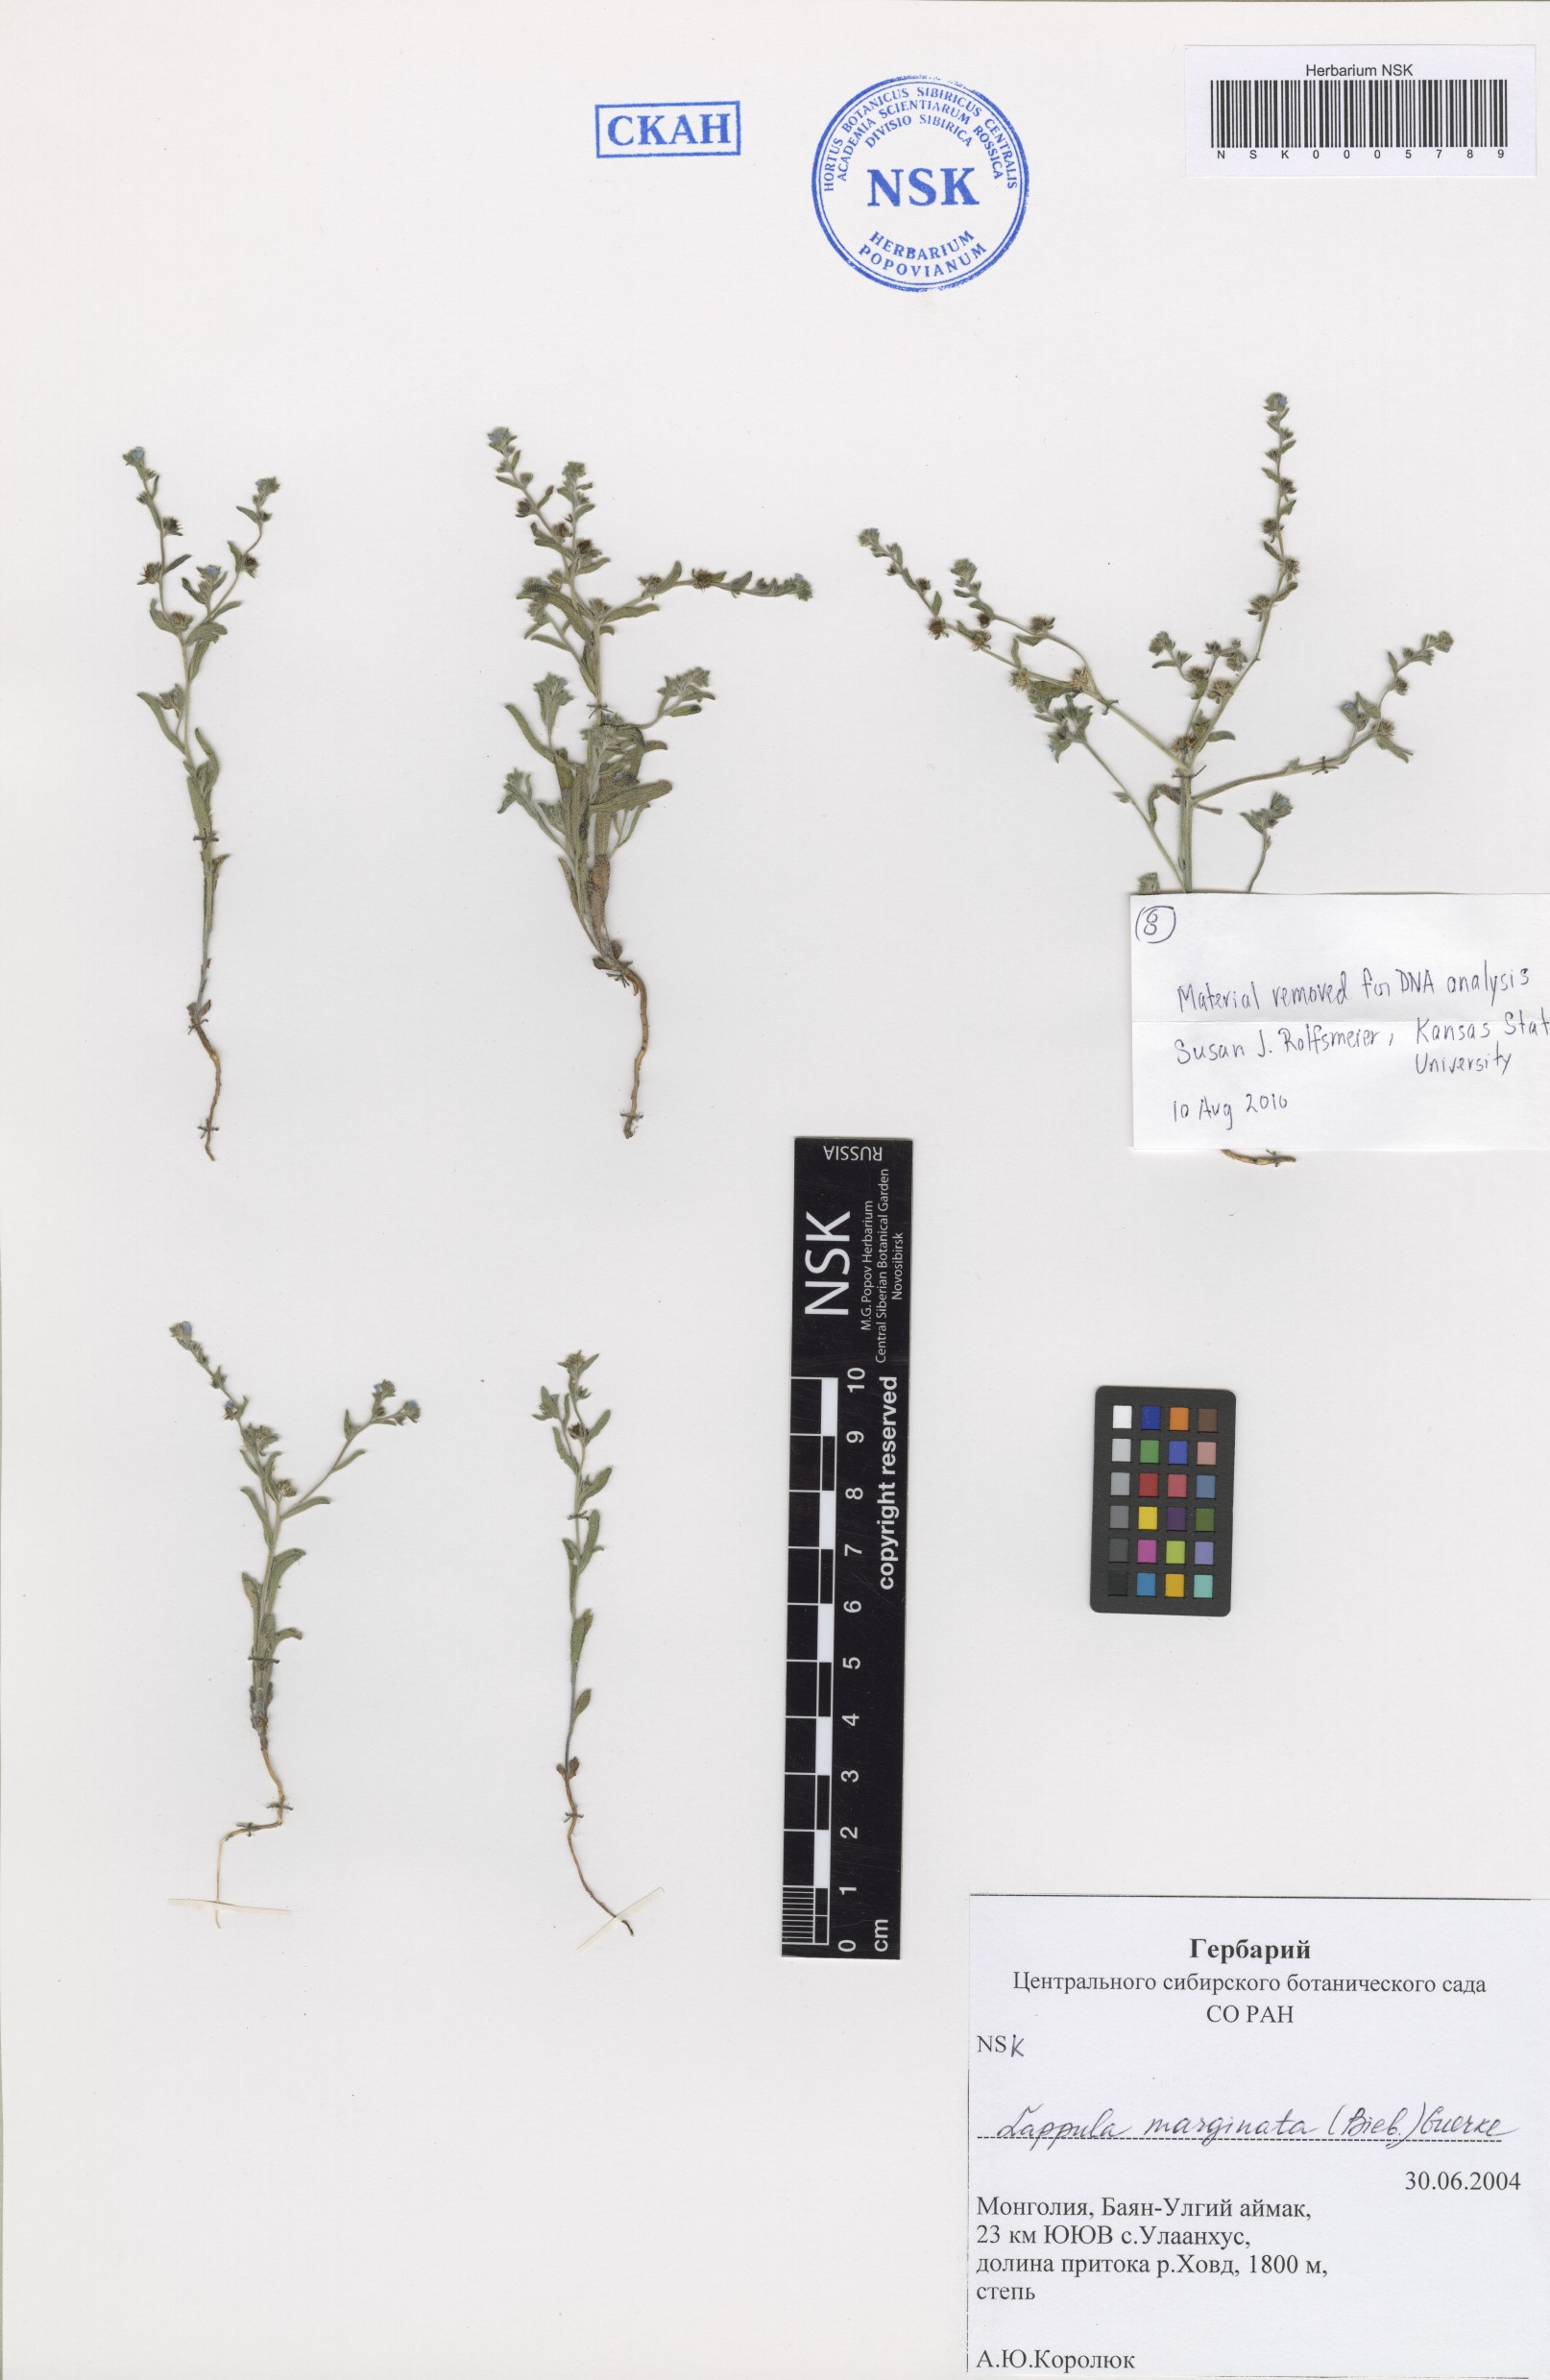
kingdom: Plantae
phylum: Tracheophyta
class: Magnoliopsida
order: Boraginales
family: Boraginaceae
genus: Lappula
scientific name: Lappula marginata
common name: Margined stickseed
